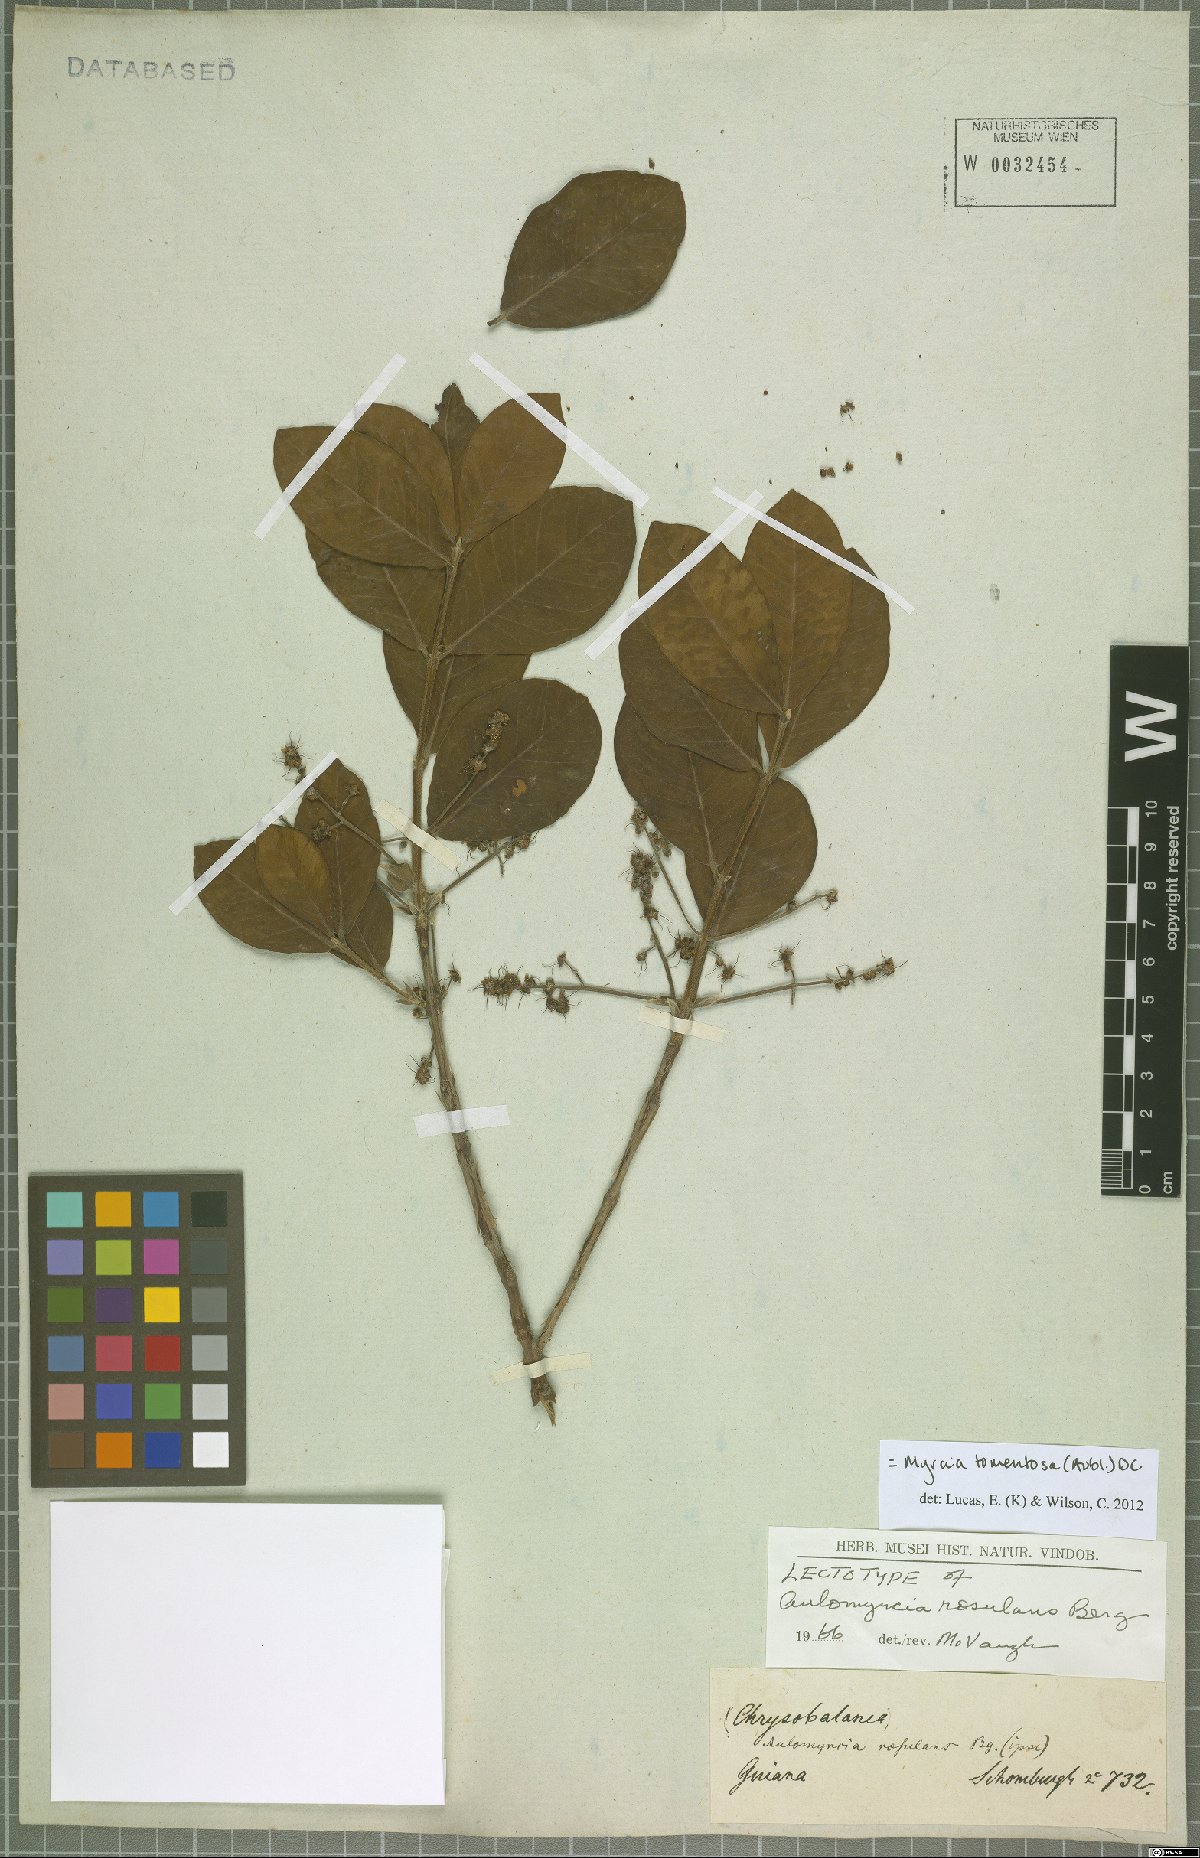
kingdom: Plantae
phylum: Tracheophyta
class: Magnoliopsida
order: Myrtales
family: Myrtaceae
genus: Myrcia
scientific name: Myrcia tomentosa
